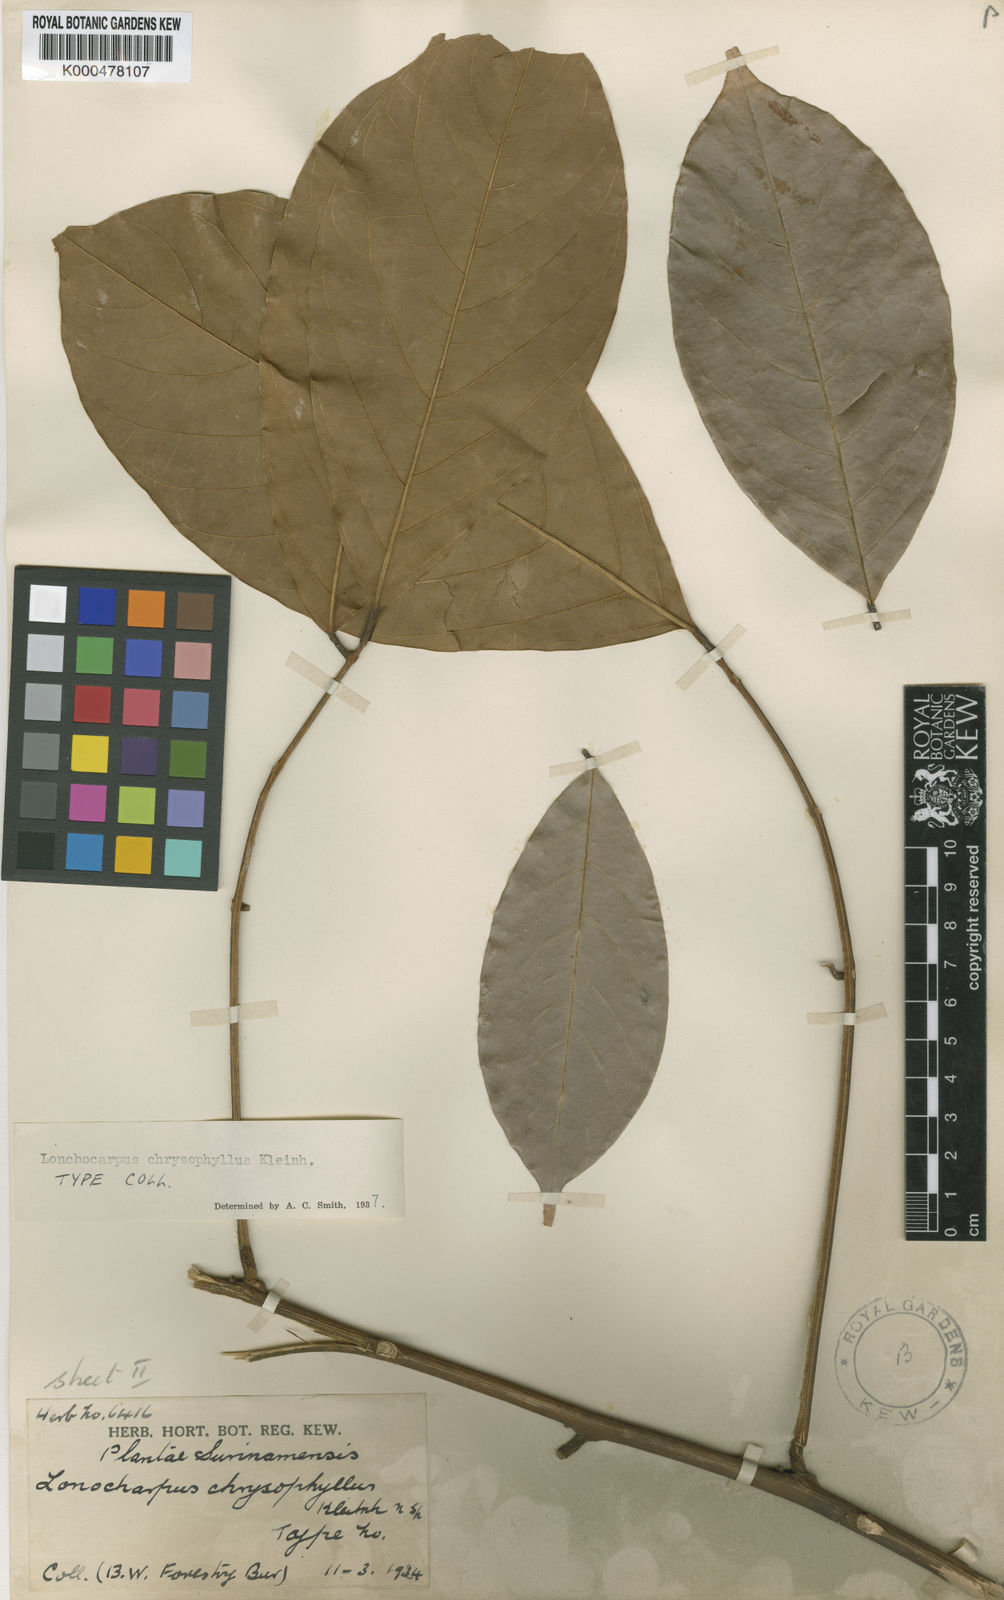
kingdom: Plantae
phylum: Tracheophyta
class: Magnoliopsida
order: Fabales
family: Fabaceae
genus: Deguelia
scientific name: Deguelia chrysophylla
